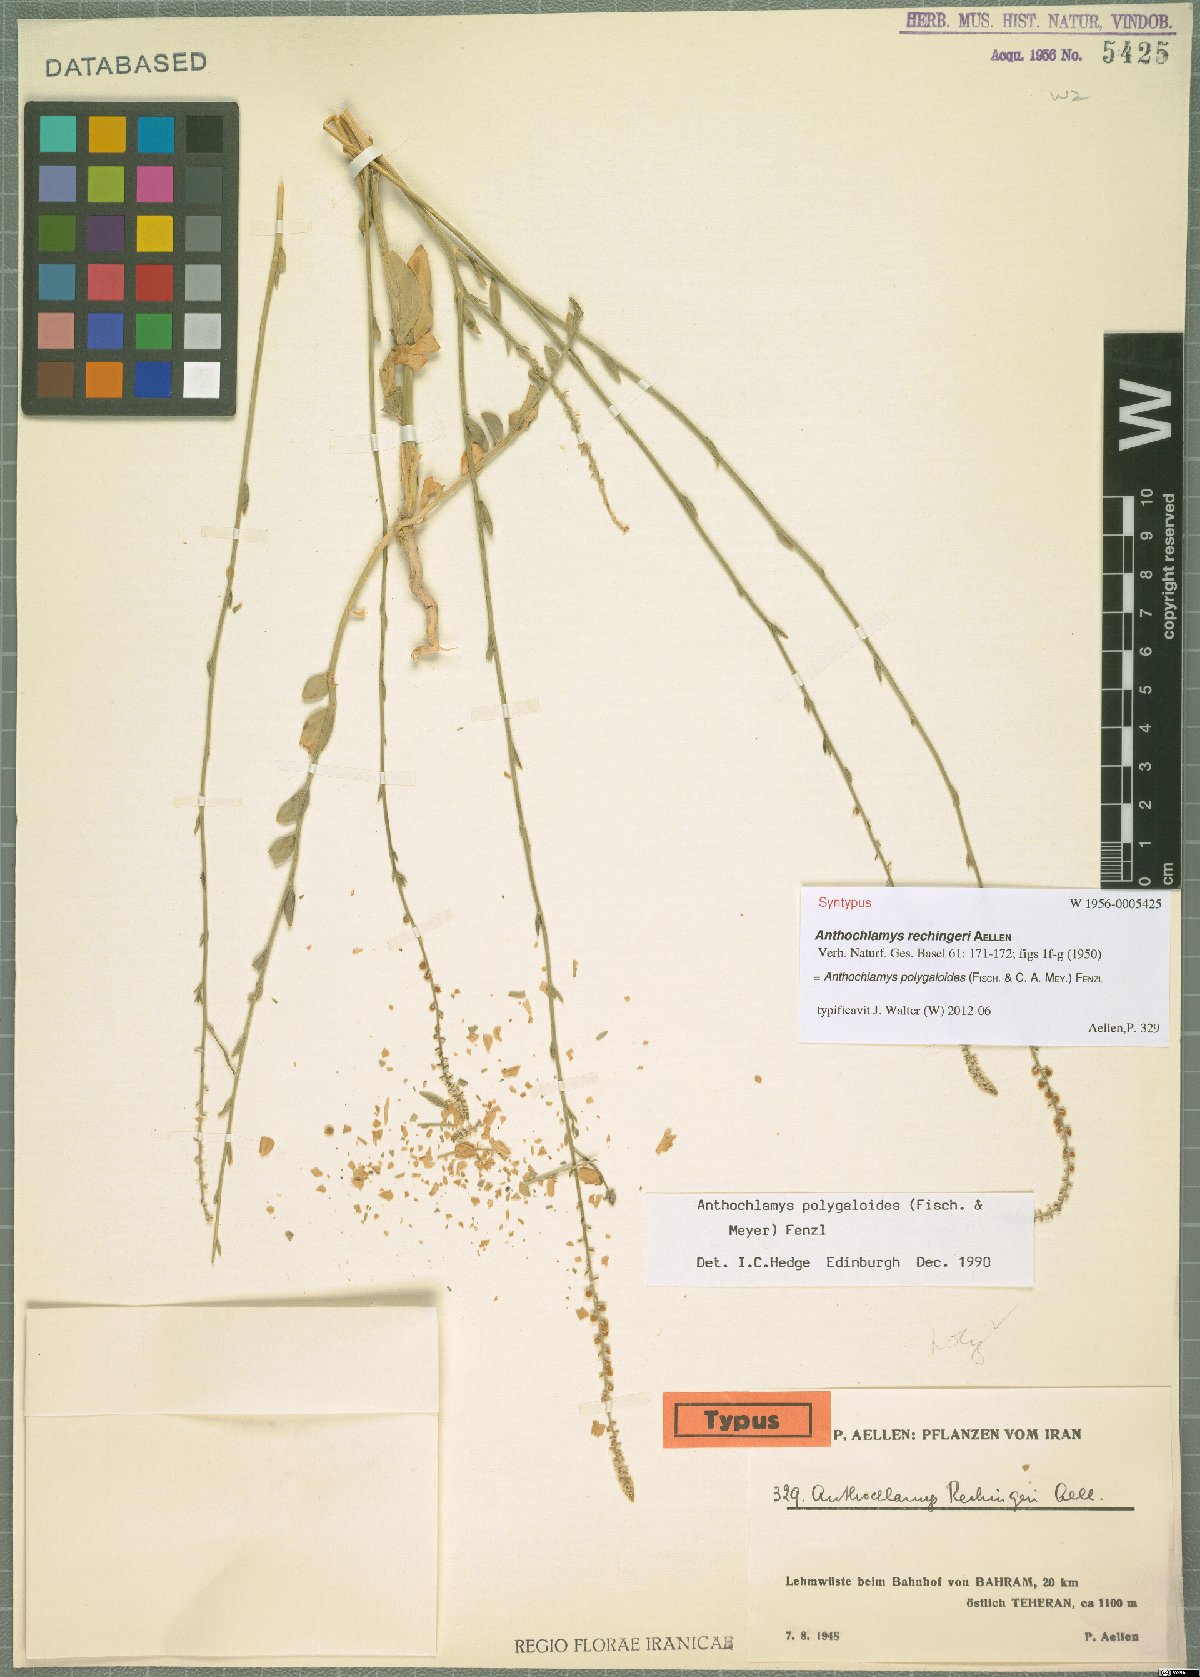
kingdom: Plantae
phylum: Tracheophyta
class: Magnoliopsida
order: Caryophyllales
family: Amaranthaceae
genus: Anthochlamys
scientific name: Anthochlamys polygaloides
